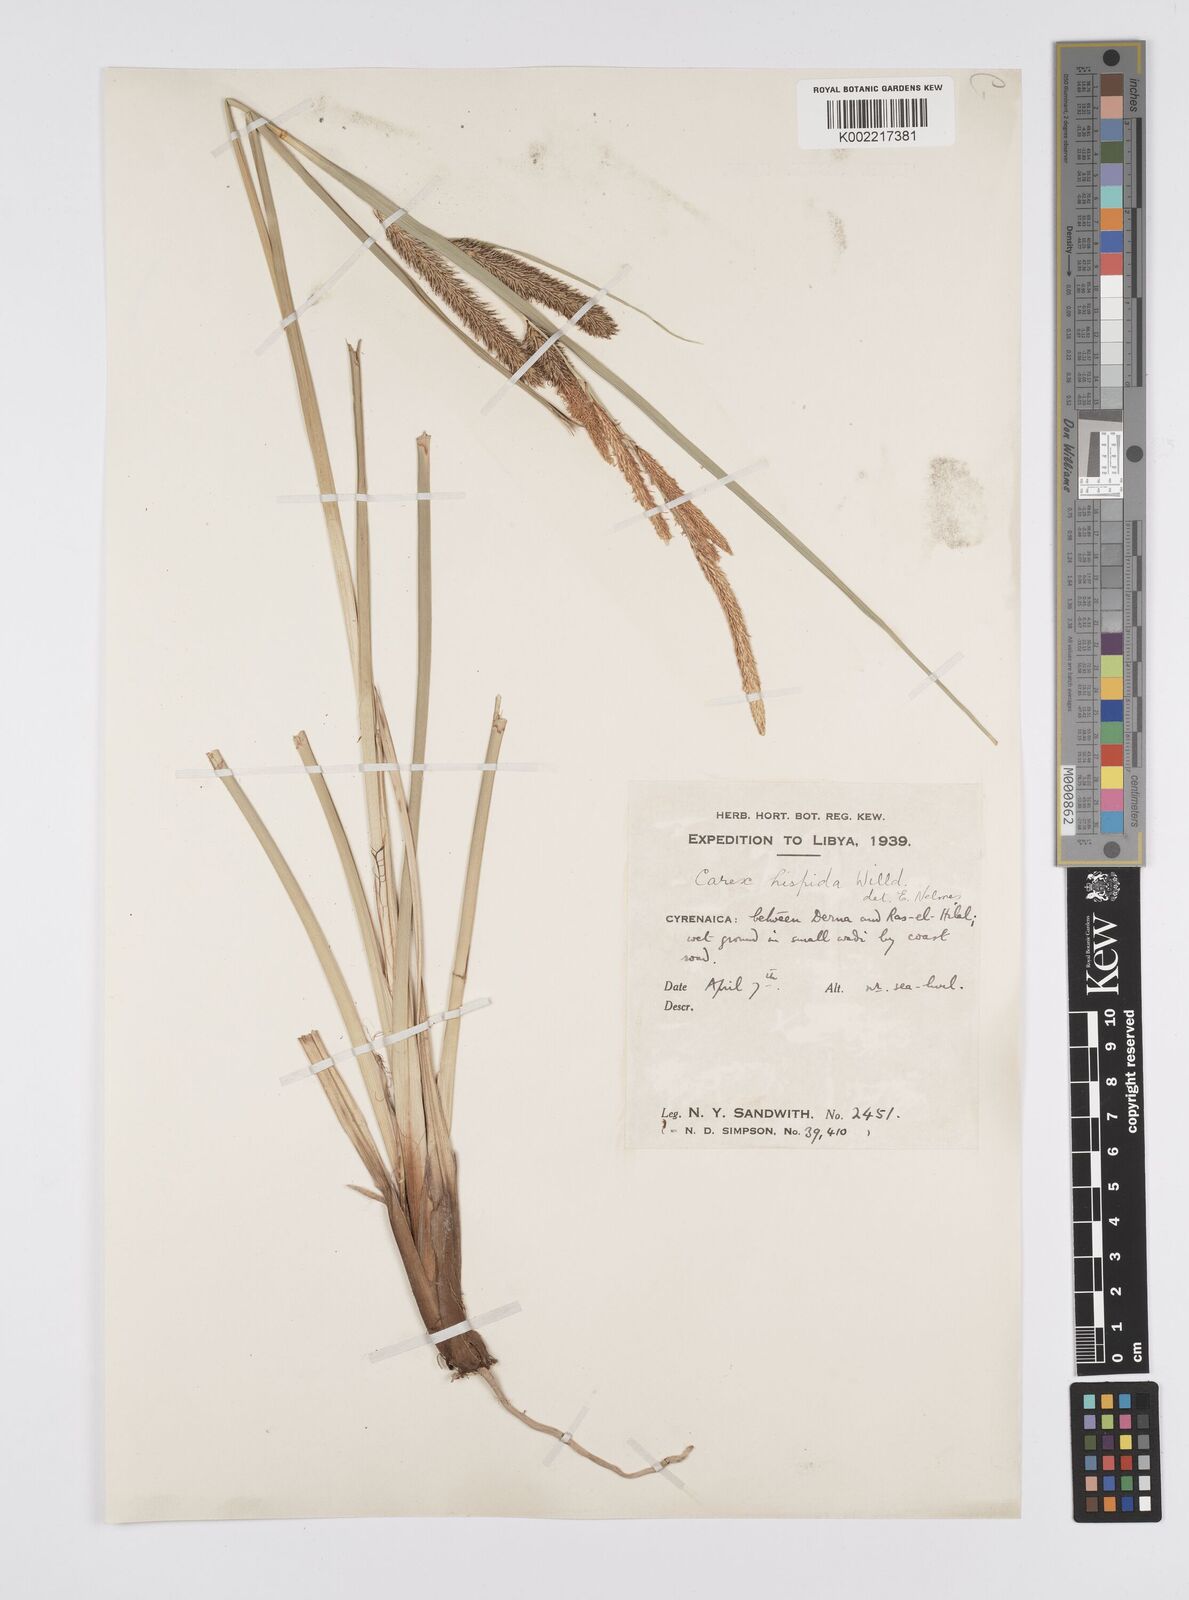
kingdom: Plantae
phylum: Tracheophyta
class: Liliopsida
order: Poales
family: Cyperaceae
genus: Carex
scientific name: Carex hispida
